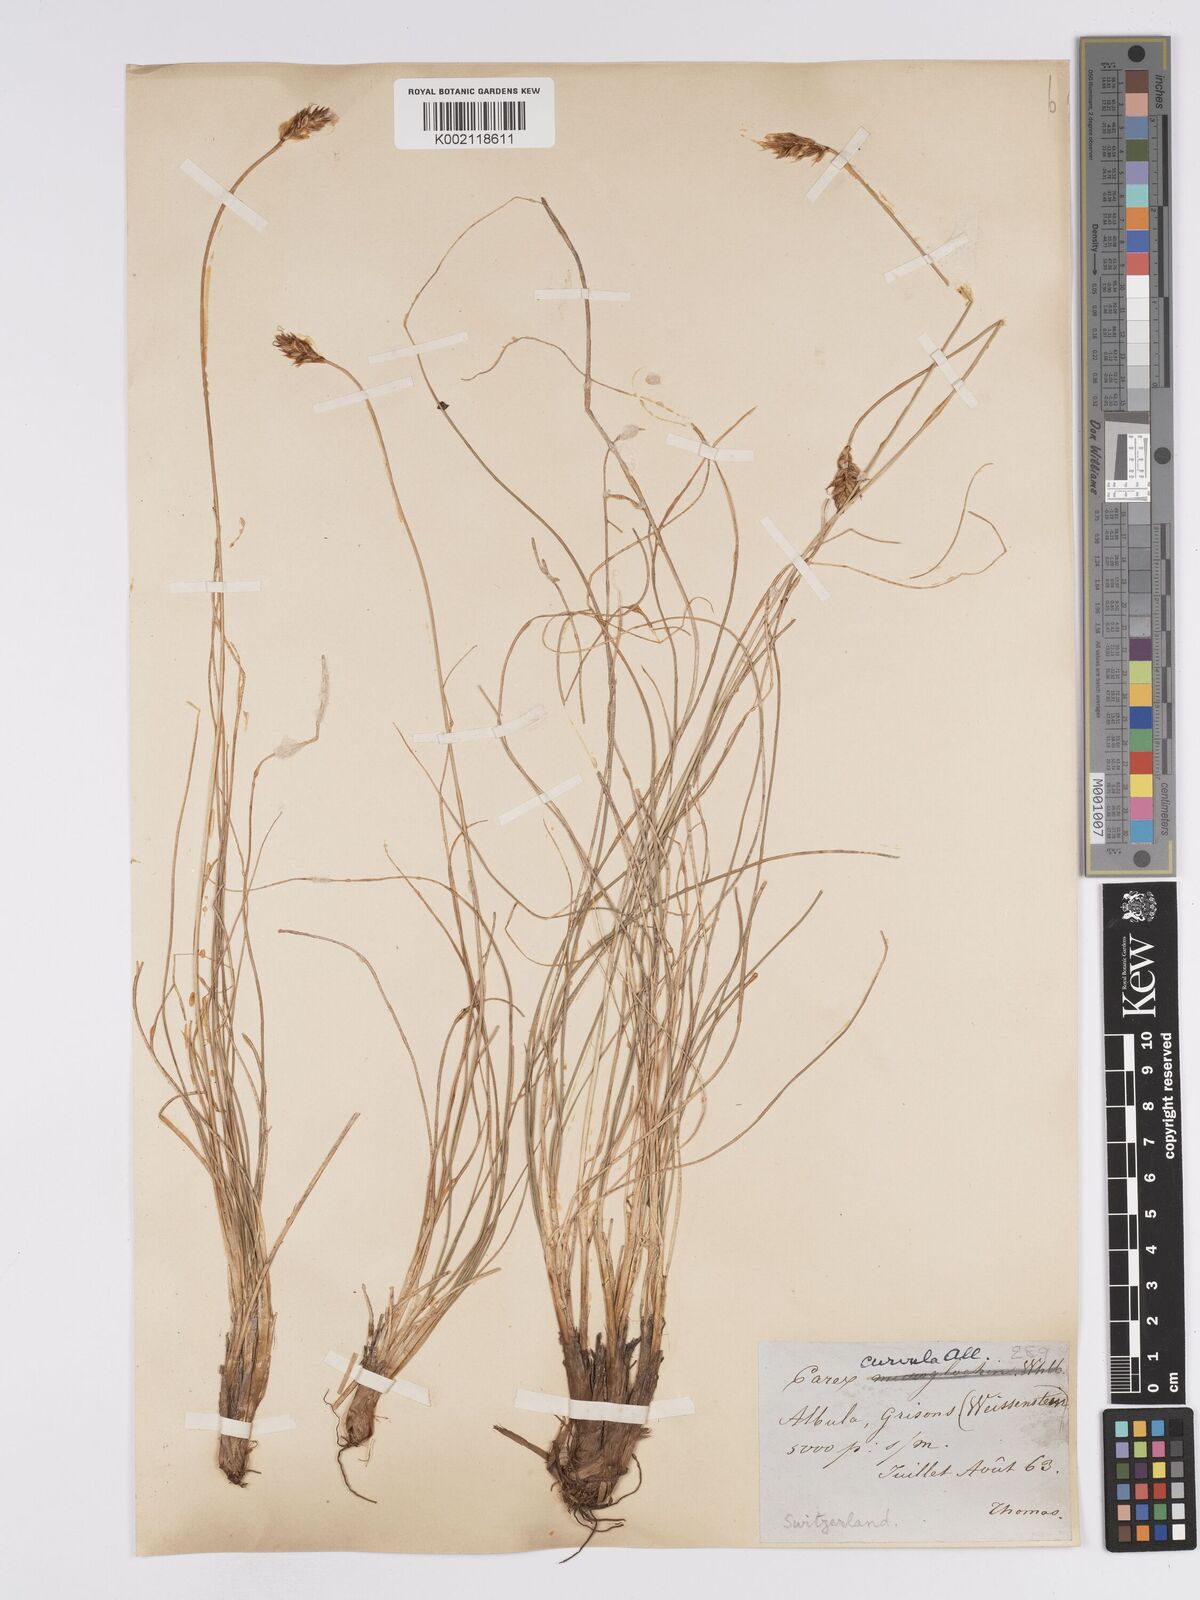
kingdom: Plantae
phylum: Tracheophyta
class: Liliopsida
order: Poales
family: Cyperaceae
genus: Carex
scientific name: Carex curvula
